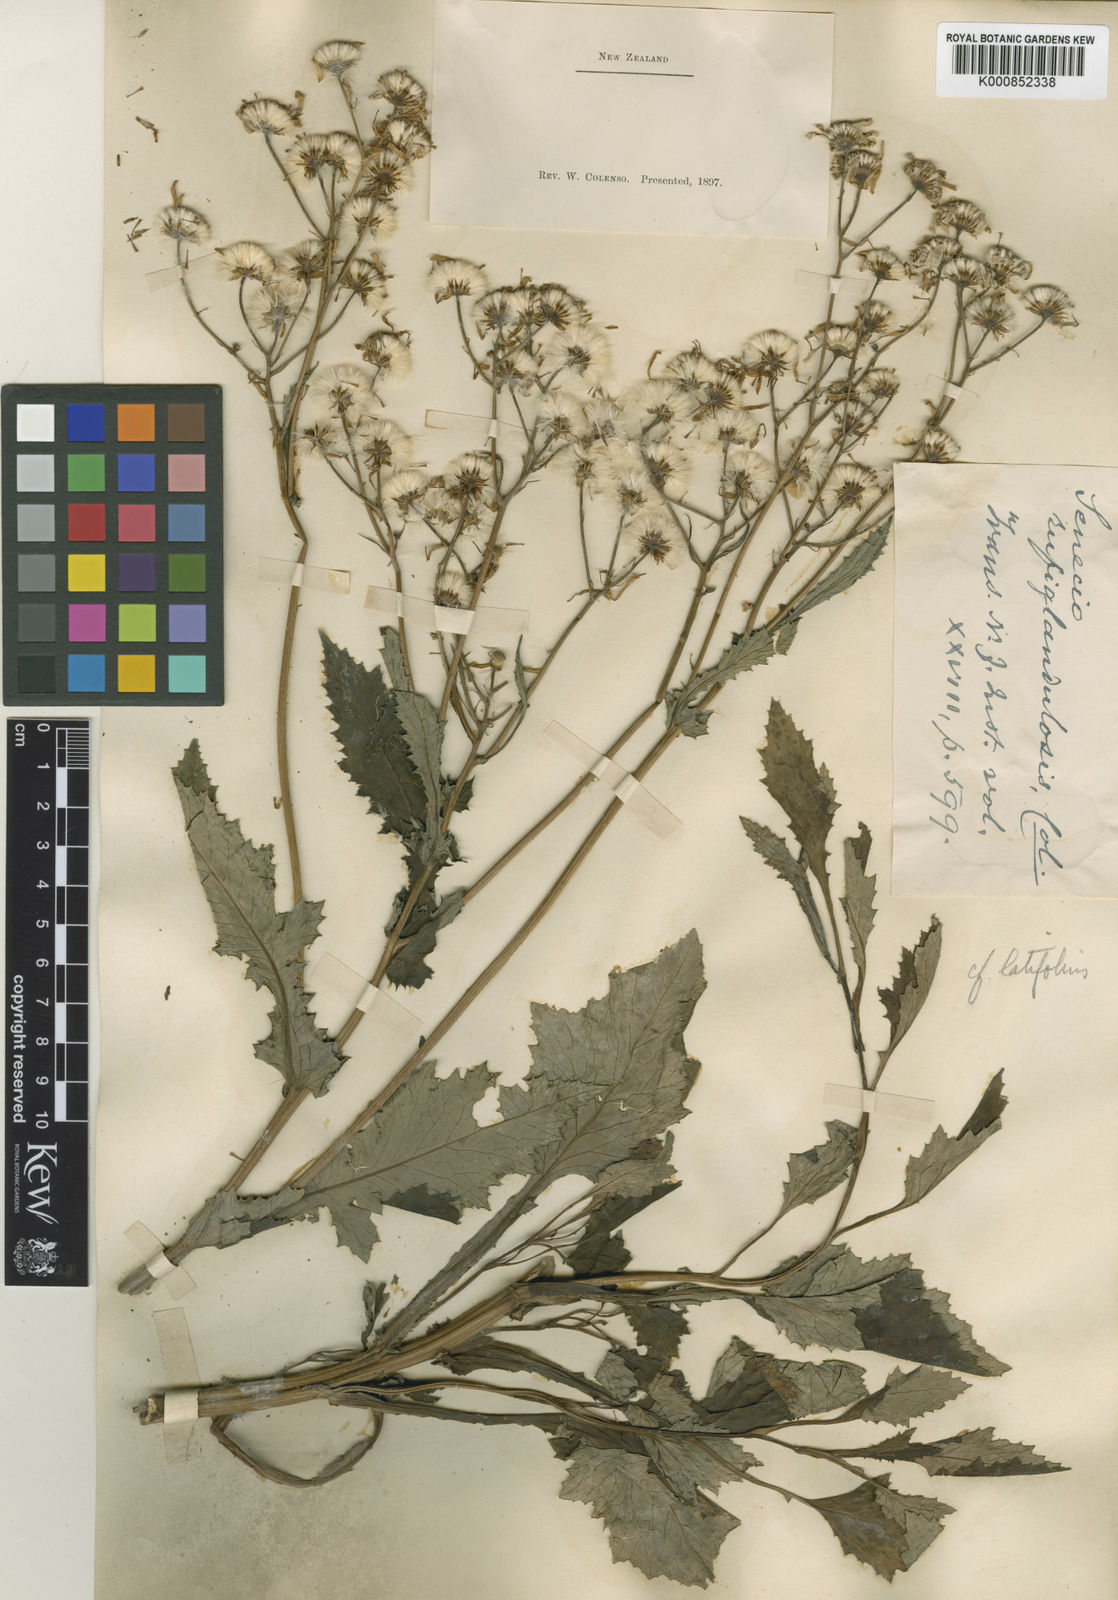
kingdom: Plantae
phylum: Tracheophyta
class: Magnoliopsida
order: Asterales
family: Asteraceae
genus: Senecio
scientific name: Senecio
